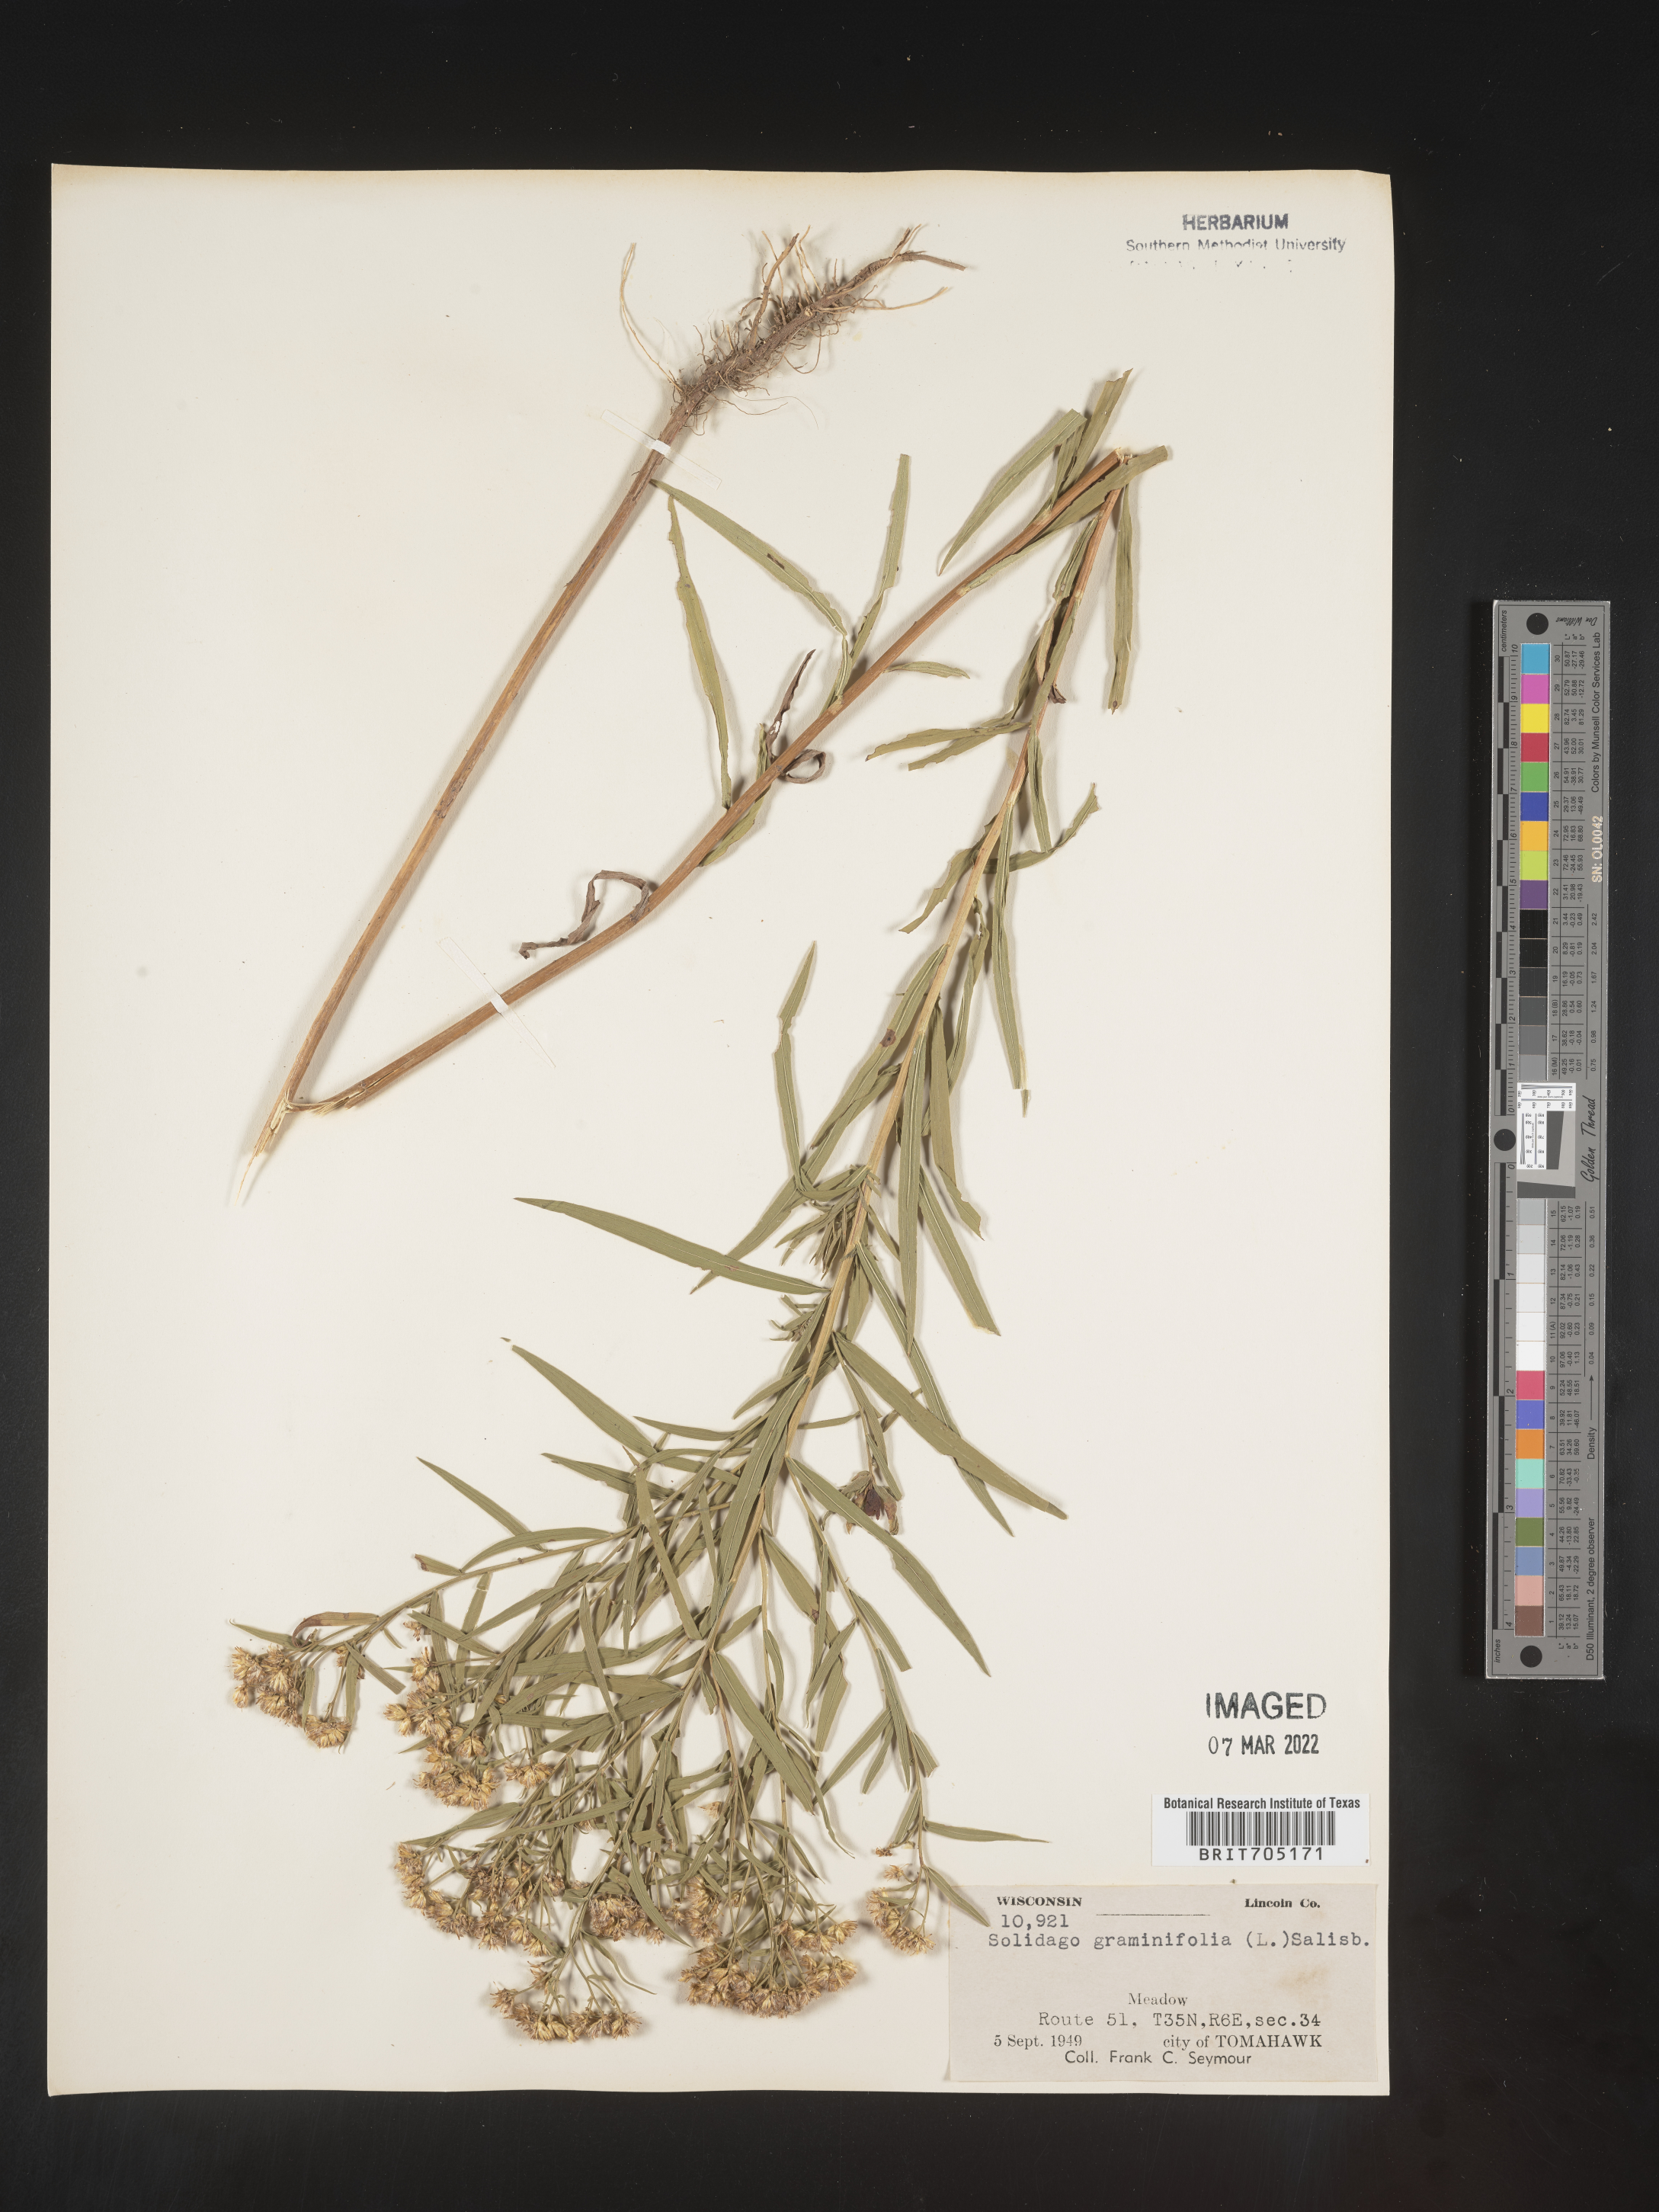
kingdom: Plantae
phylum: Tracheophyta
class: Magnoliopsida
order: Asterales
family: Asteraceae
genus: Euthamia
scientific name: Euthamia graminifolia
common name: Common goldentop
